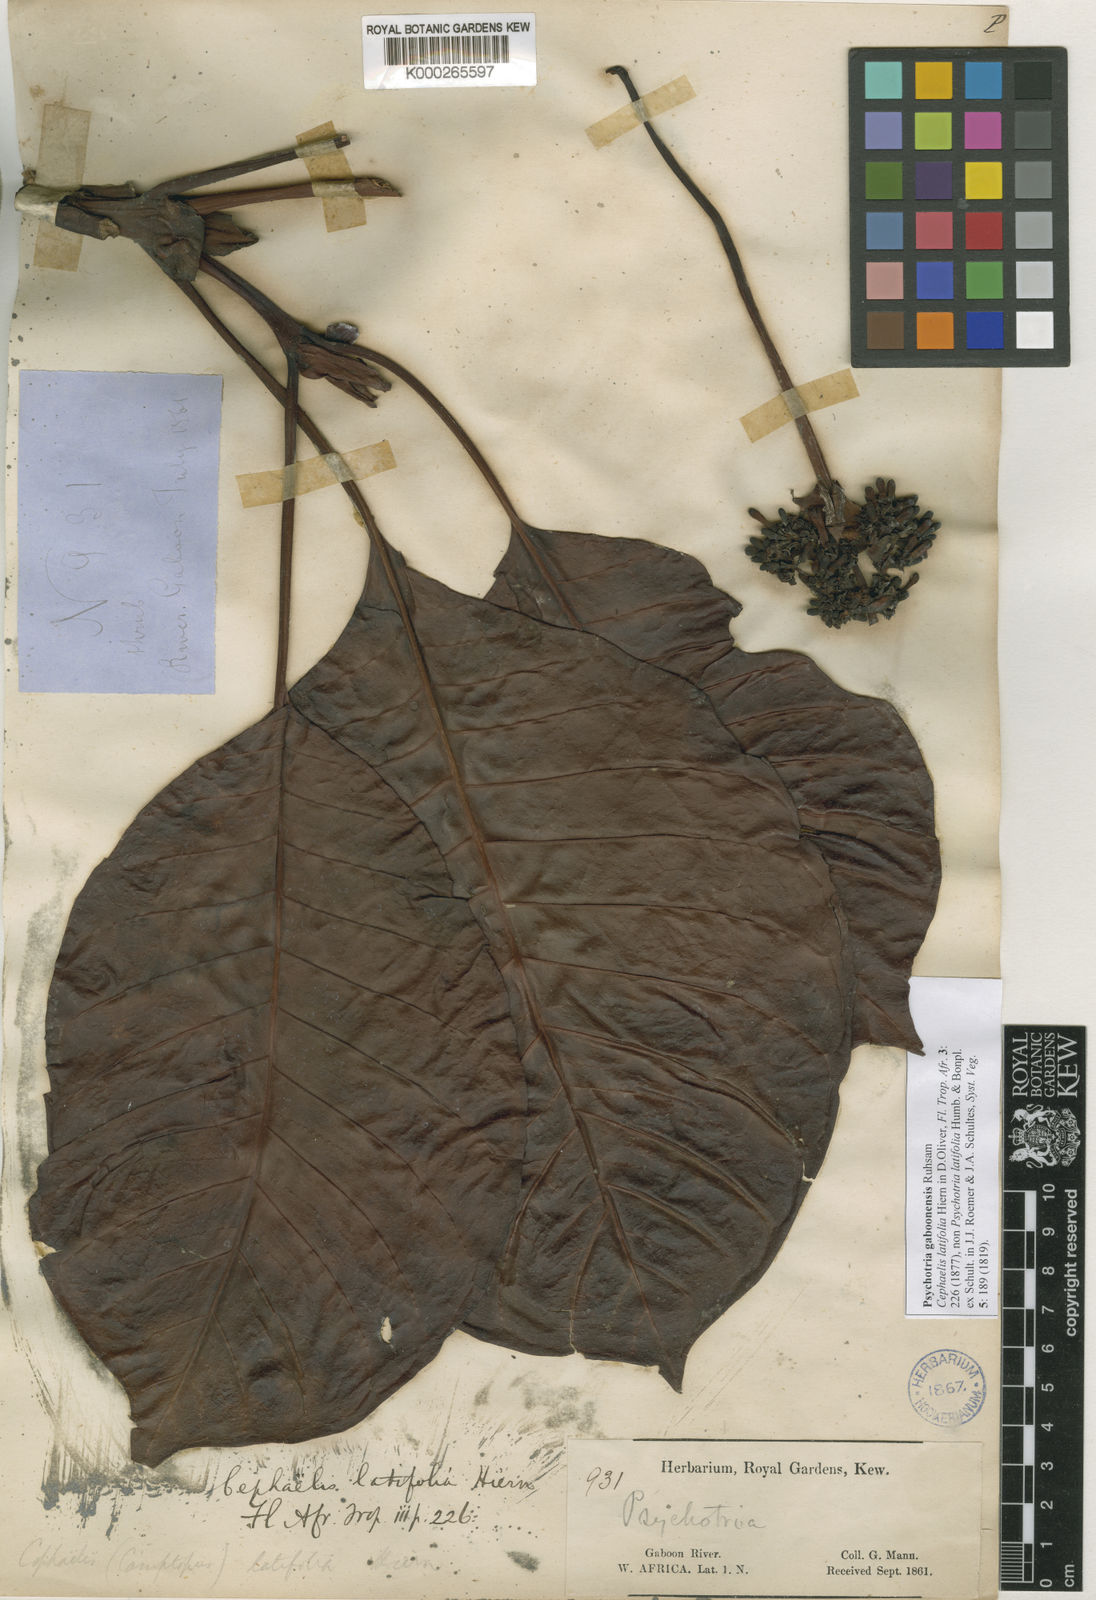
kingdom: Plantae
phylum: Tracheophyta
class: Magnoliopsida
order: Gentianales
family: Rubiaceae
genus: Psychotria
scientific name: Psychotria gaboonensis
